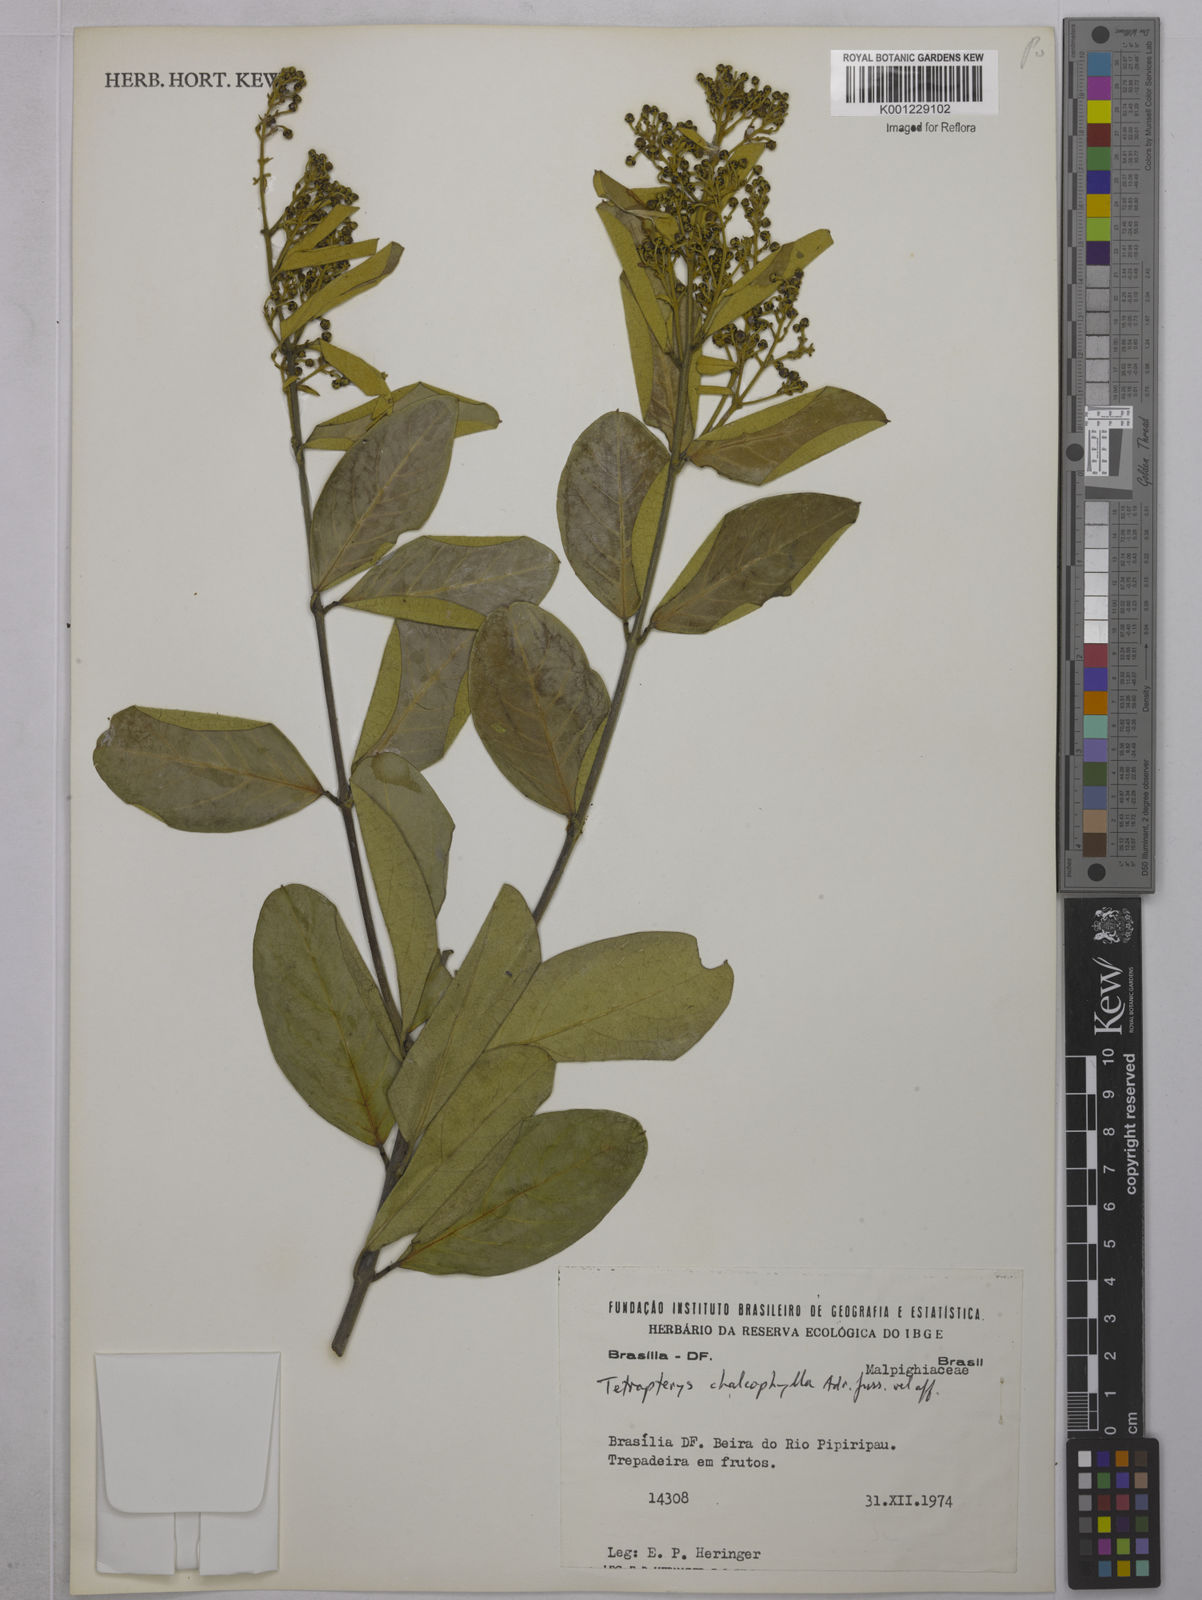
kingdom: Plantae
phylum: Tracheophyta
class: Magnoliopsida
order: Malpighiales
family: Malpighiaceae
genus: Niedenzuella
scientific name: Niedenzuella sericea
